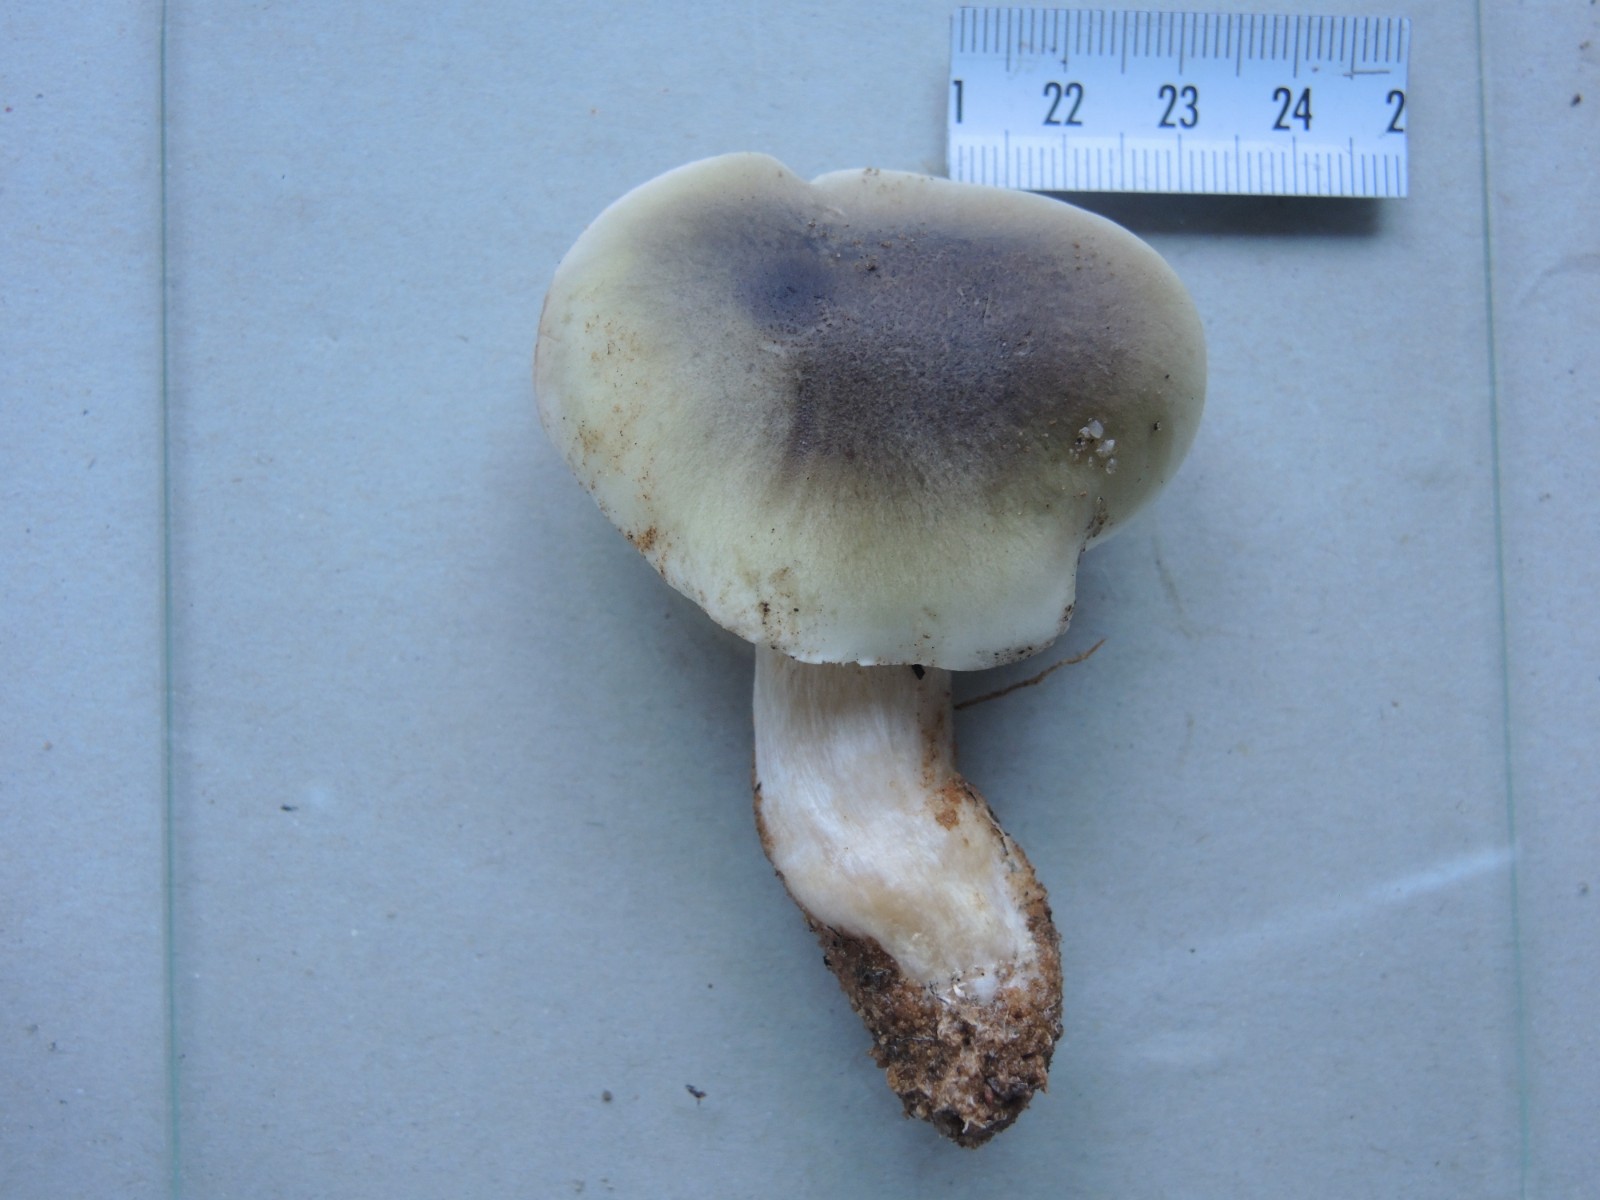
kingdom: Fungi
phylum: Basidiomycota
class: Agaricomycetes
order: Agaricales
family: Tricholomataceae
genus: Tricholoma
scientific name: Tricholoma saponaceum
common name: Soapy trich
